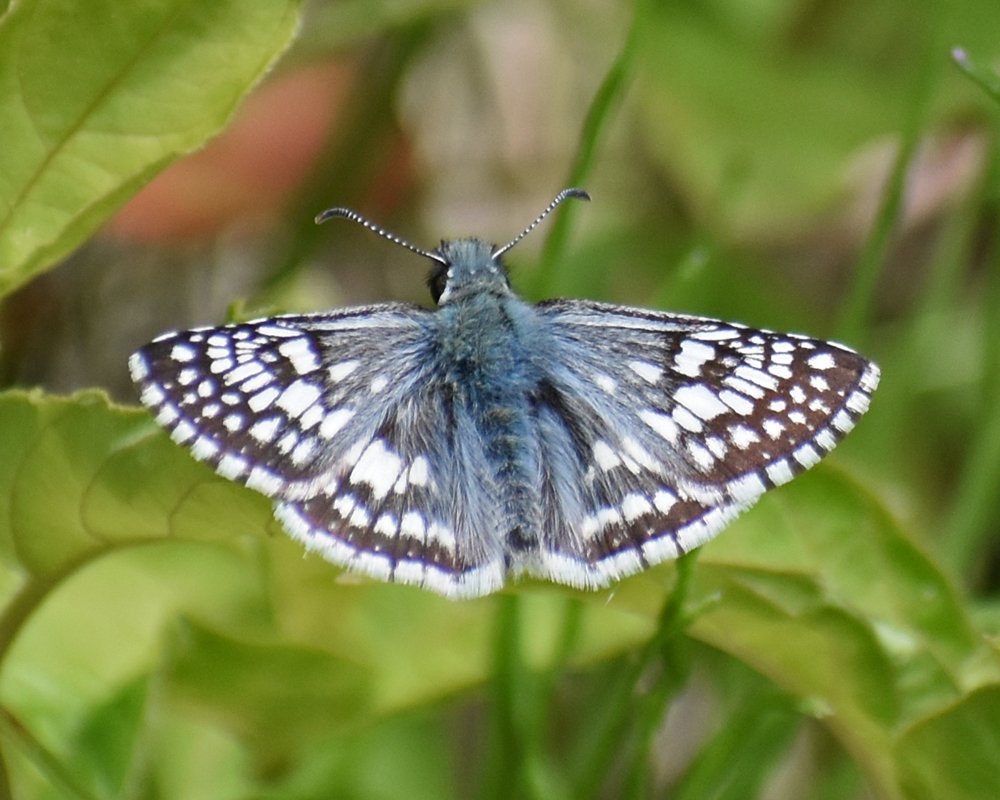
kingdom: Animalia
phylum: Arthropoda
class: Insecta
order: Lepidoptera
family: Hesperiidae
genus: Pyrgus
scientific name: Pyrgus communis
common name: Common Checkered-Skipper
